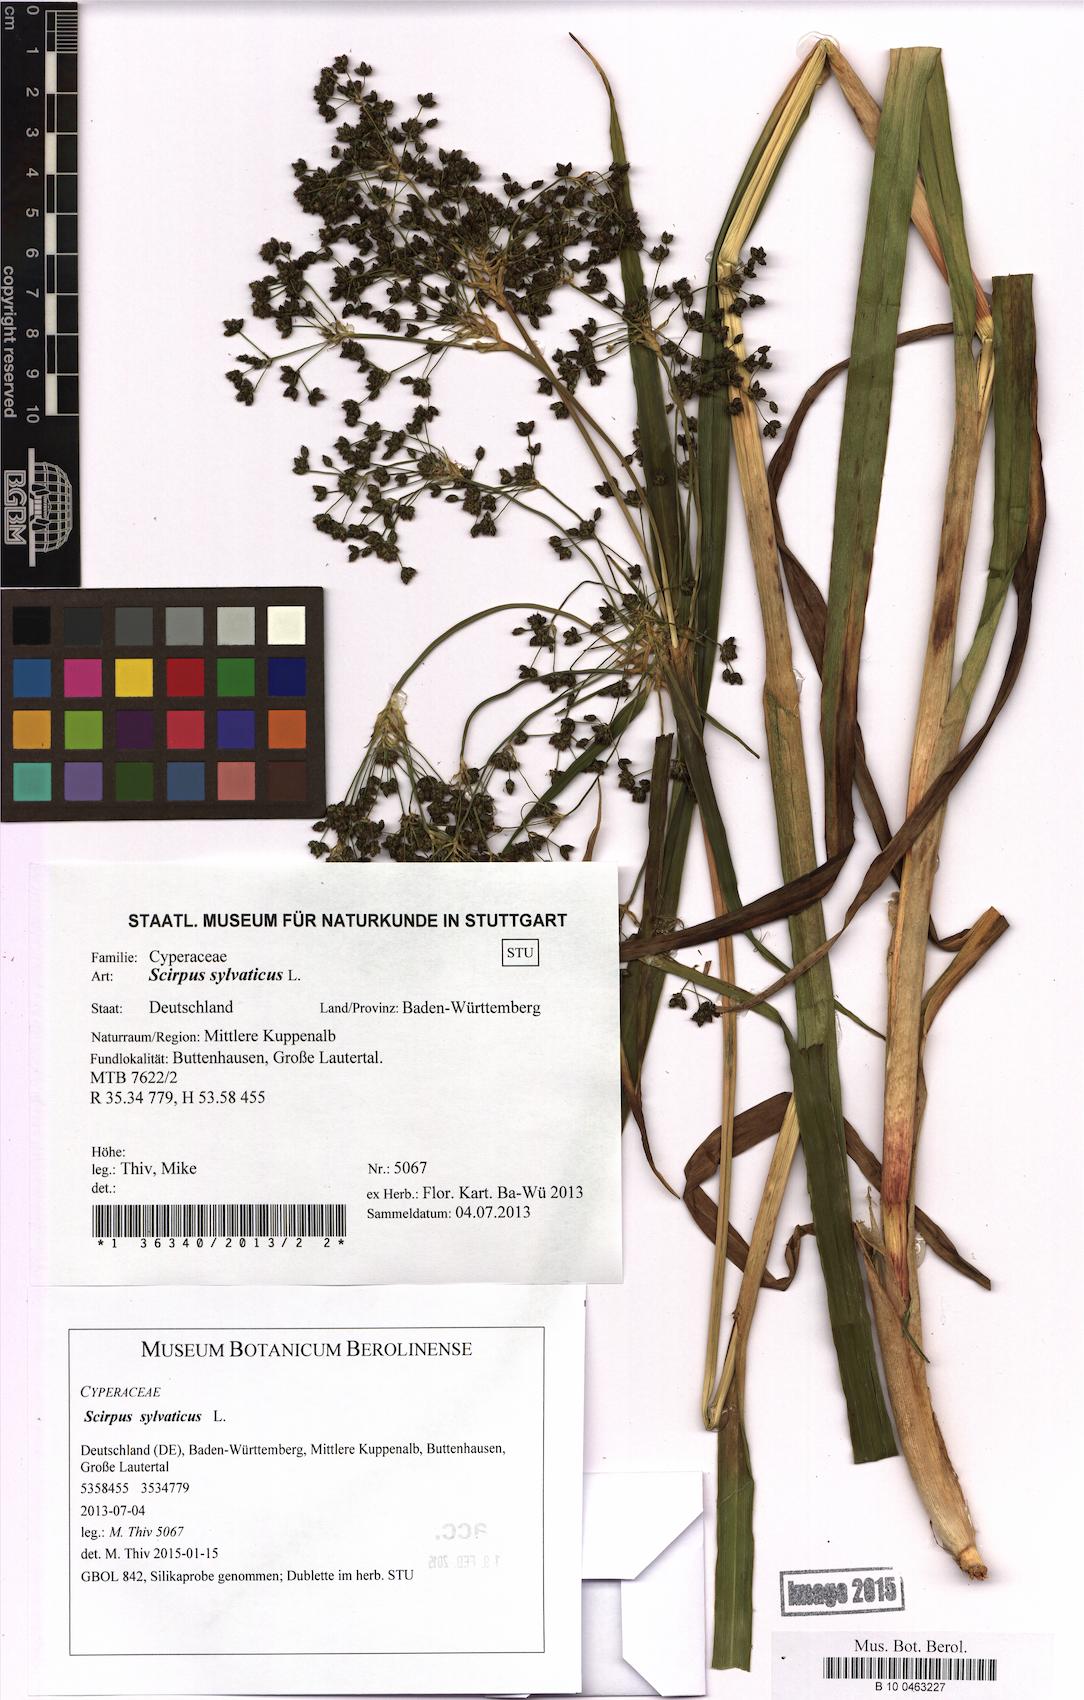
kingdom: Plantae
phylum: Tracheophyta
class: Liliopsida
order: Poales
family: Cyperaceae
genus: Scirpus
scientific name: Scirpus sylvaticus
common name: Wood club-rush
